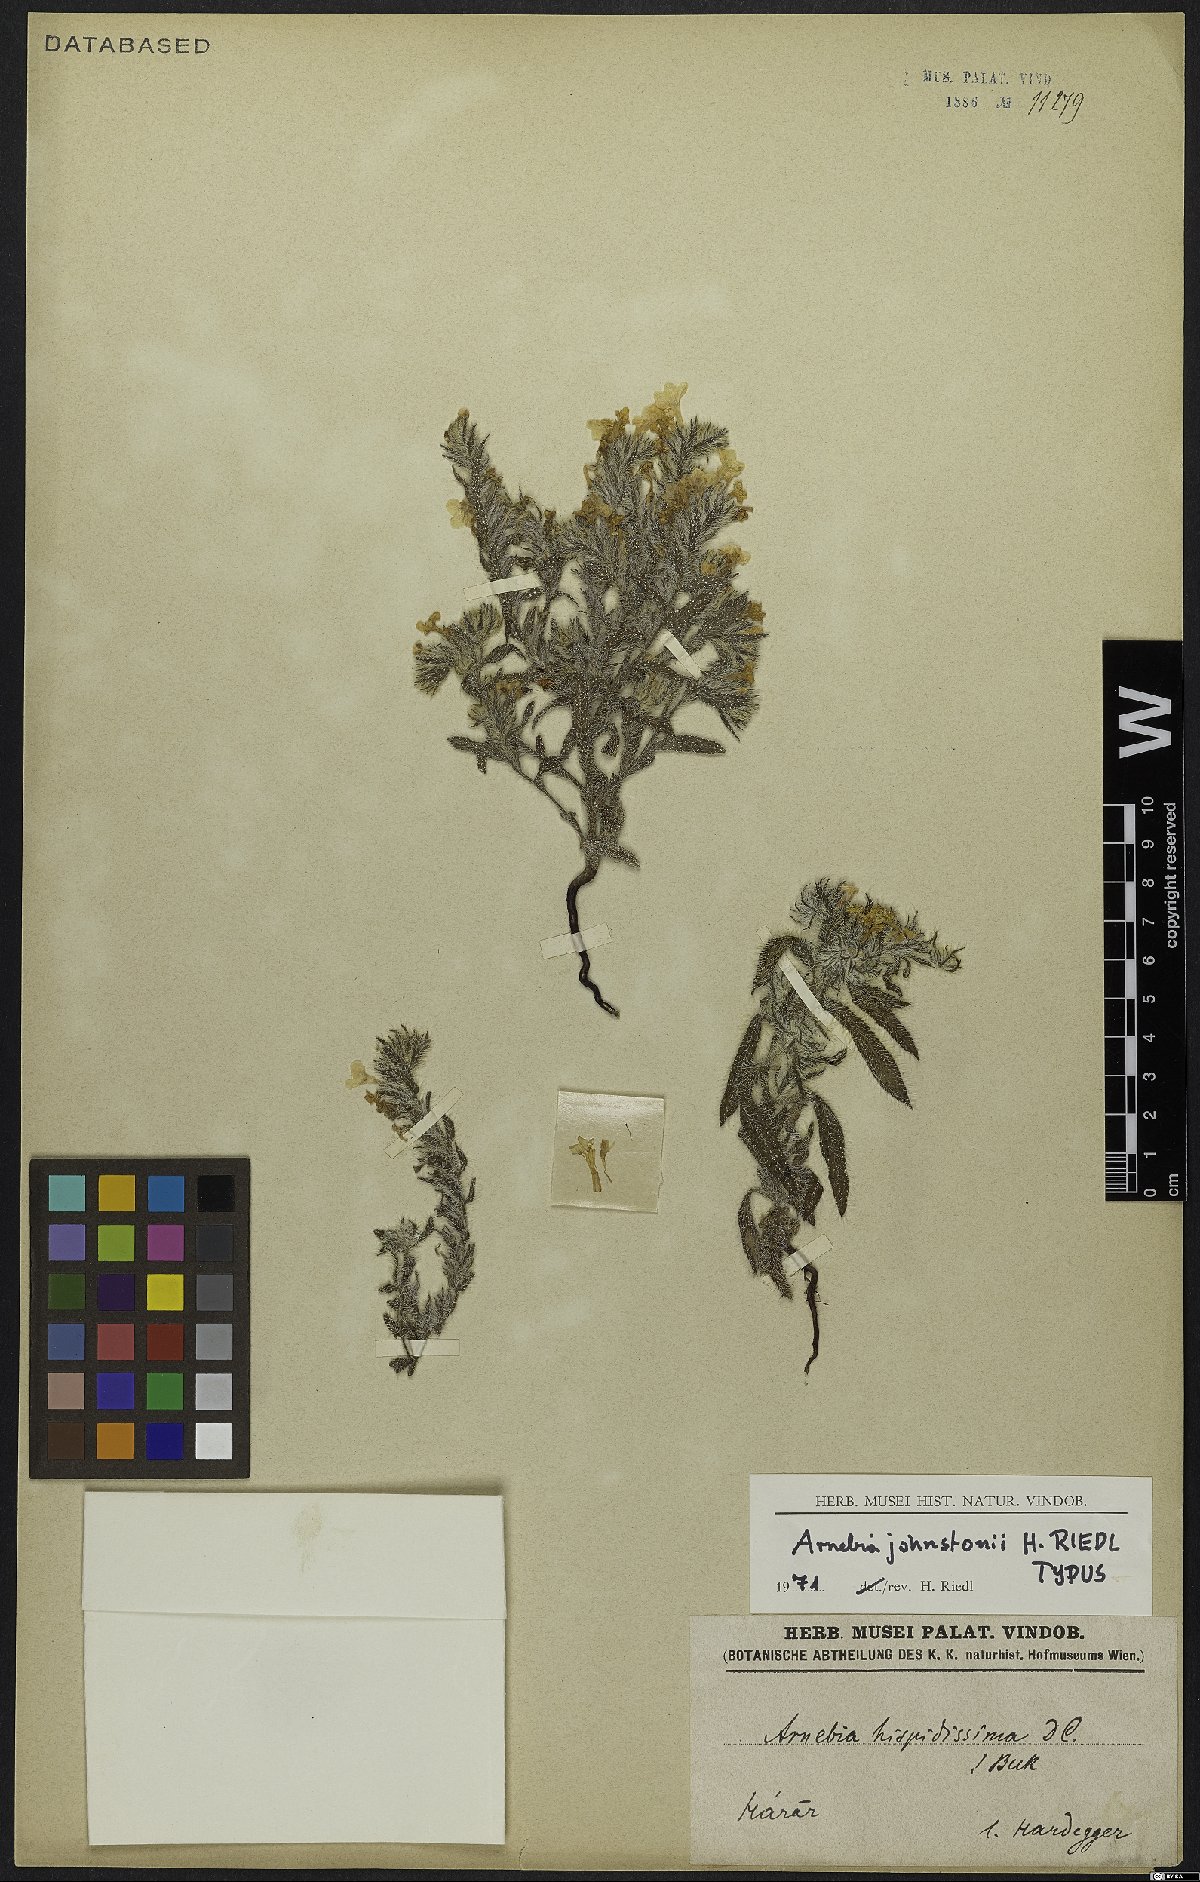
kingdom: Plantae
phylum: Tracheophyta
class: Magnoliopsida
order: Boraginales
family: Boraginaceae
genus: Arnebia
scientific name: Arnebia johnstonii
